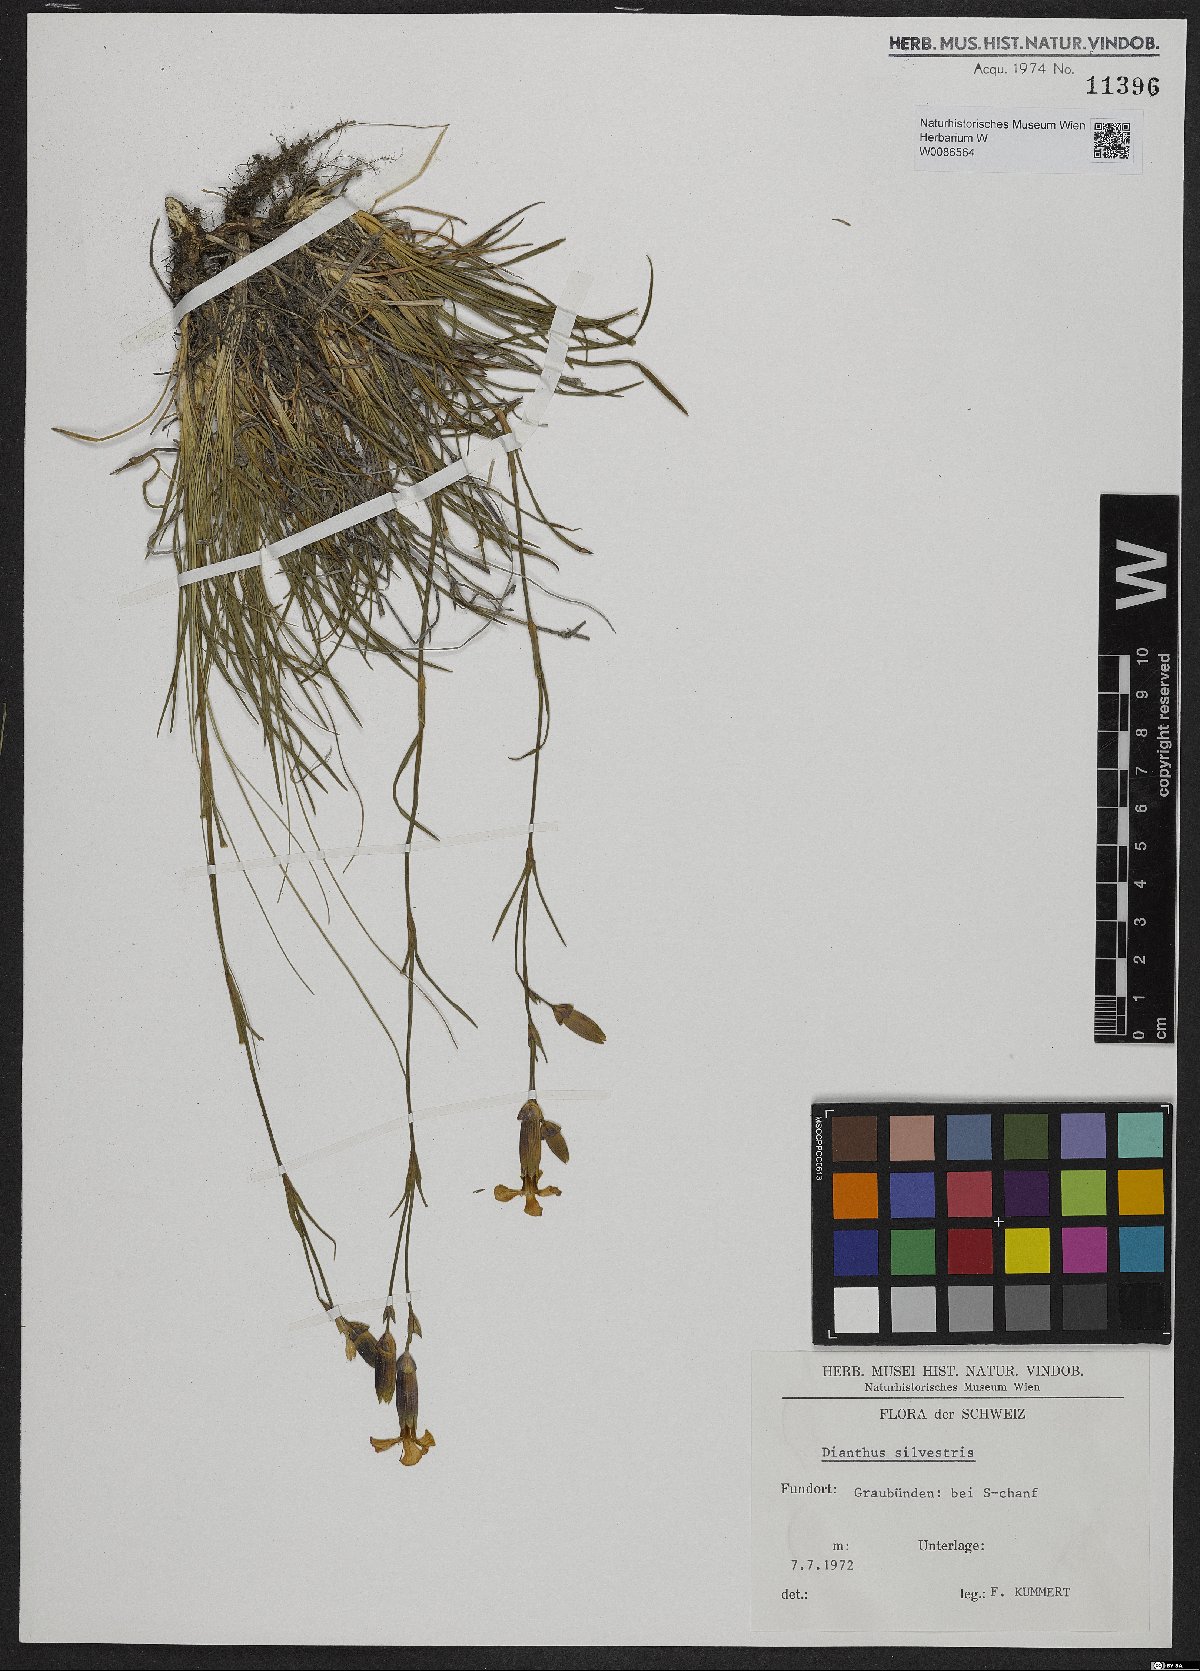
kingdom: Plantae
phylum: Tracheophyta
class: Magnoliopsida
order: Caryophyllales
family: Caryophyllaceae
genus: Dianthus
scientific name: Dianthus sylvestris
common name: Wood pink
